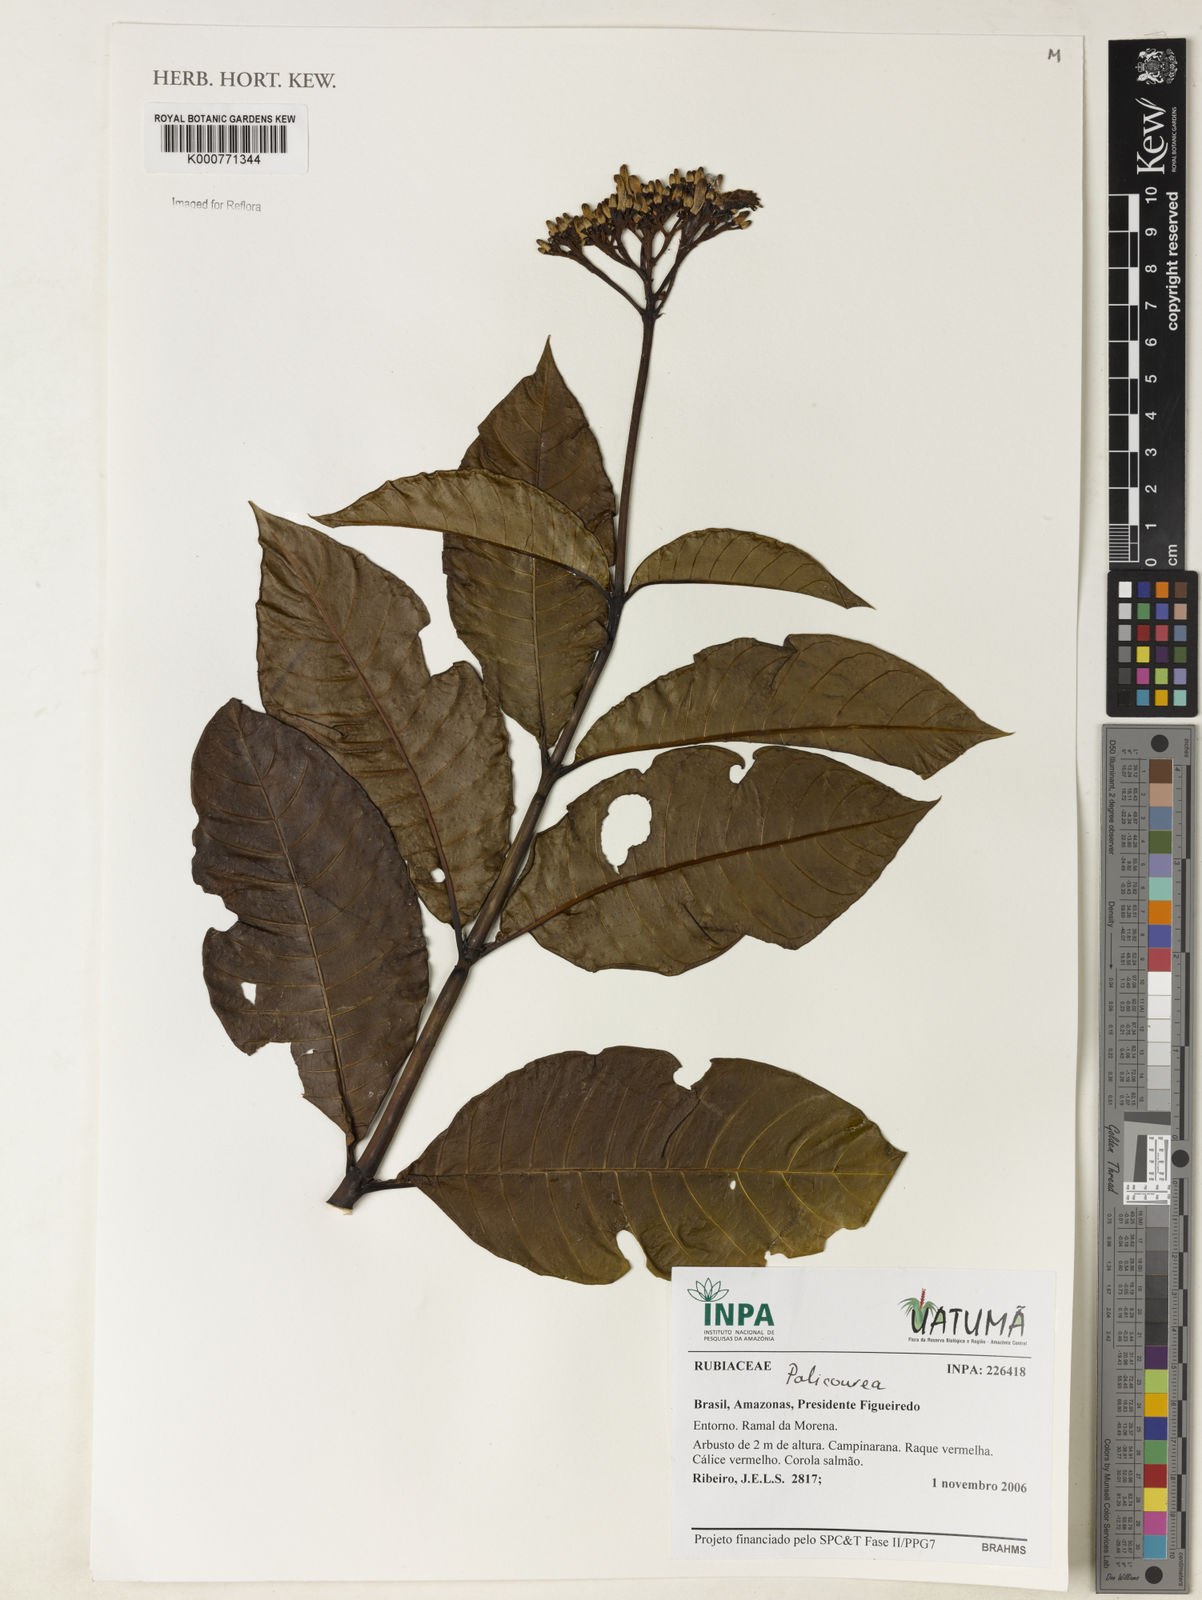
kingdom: Plantae
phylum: Tracheophyta
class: Magnoliopsida
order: Gentianales
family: Rubiaceae
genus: Palicourea
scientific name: Palicourea
